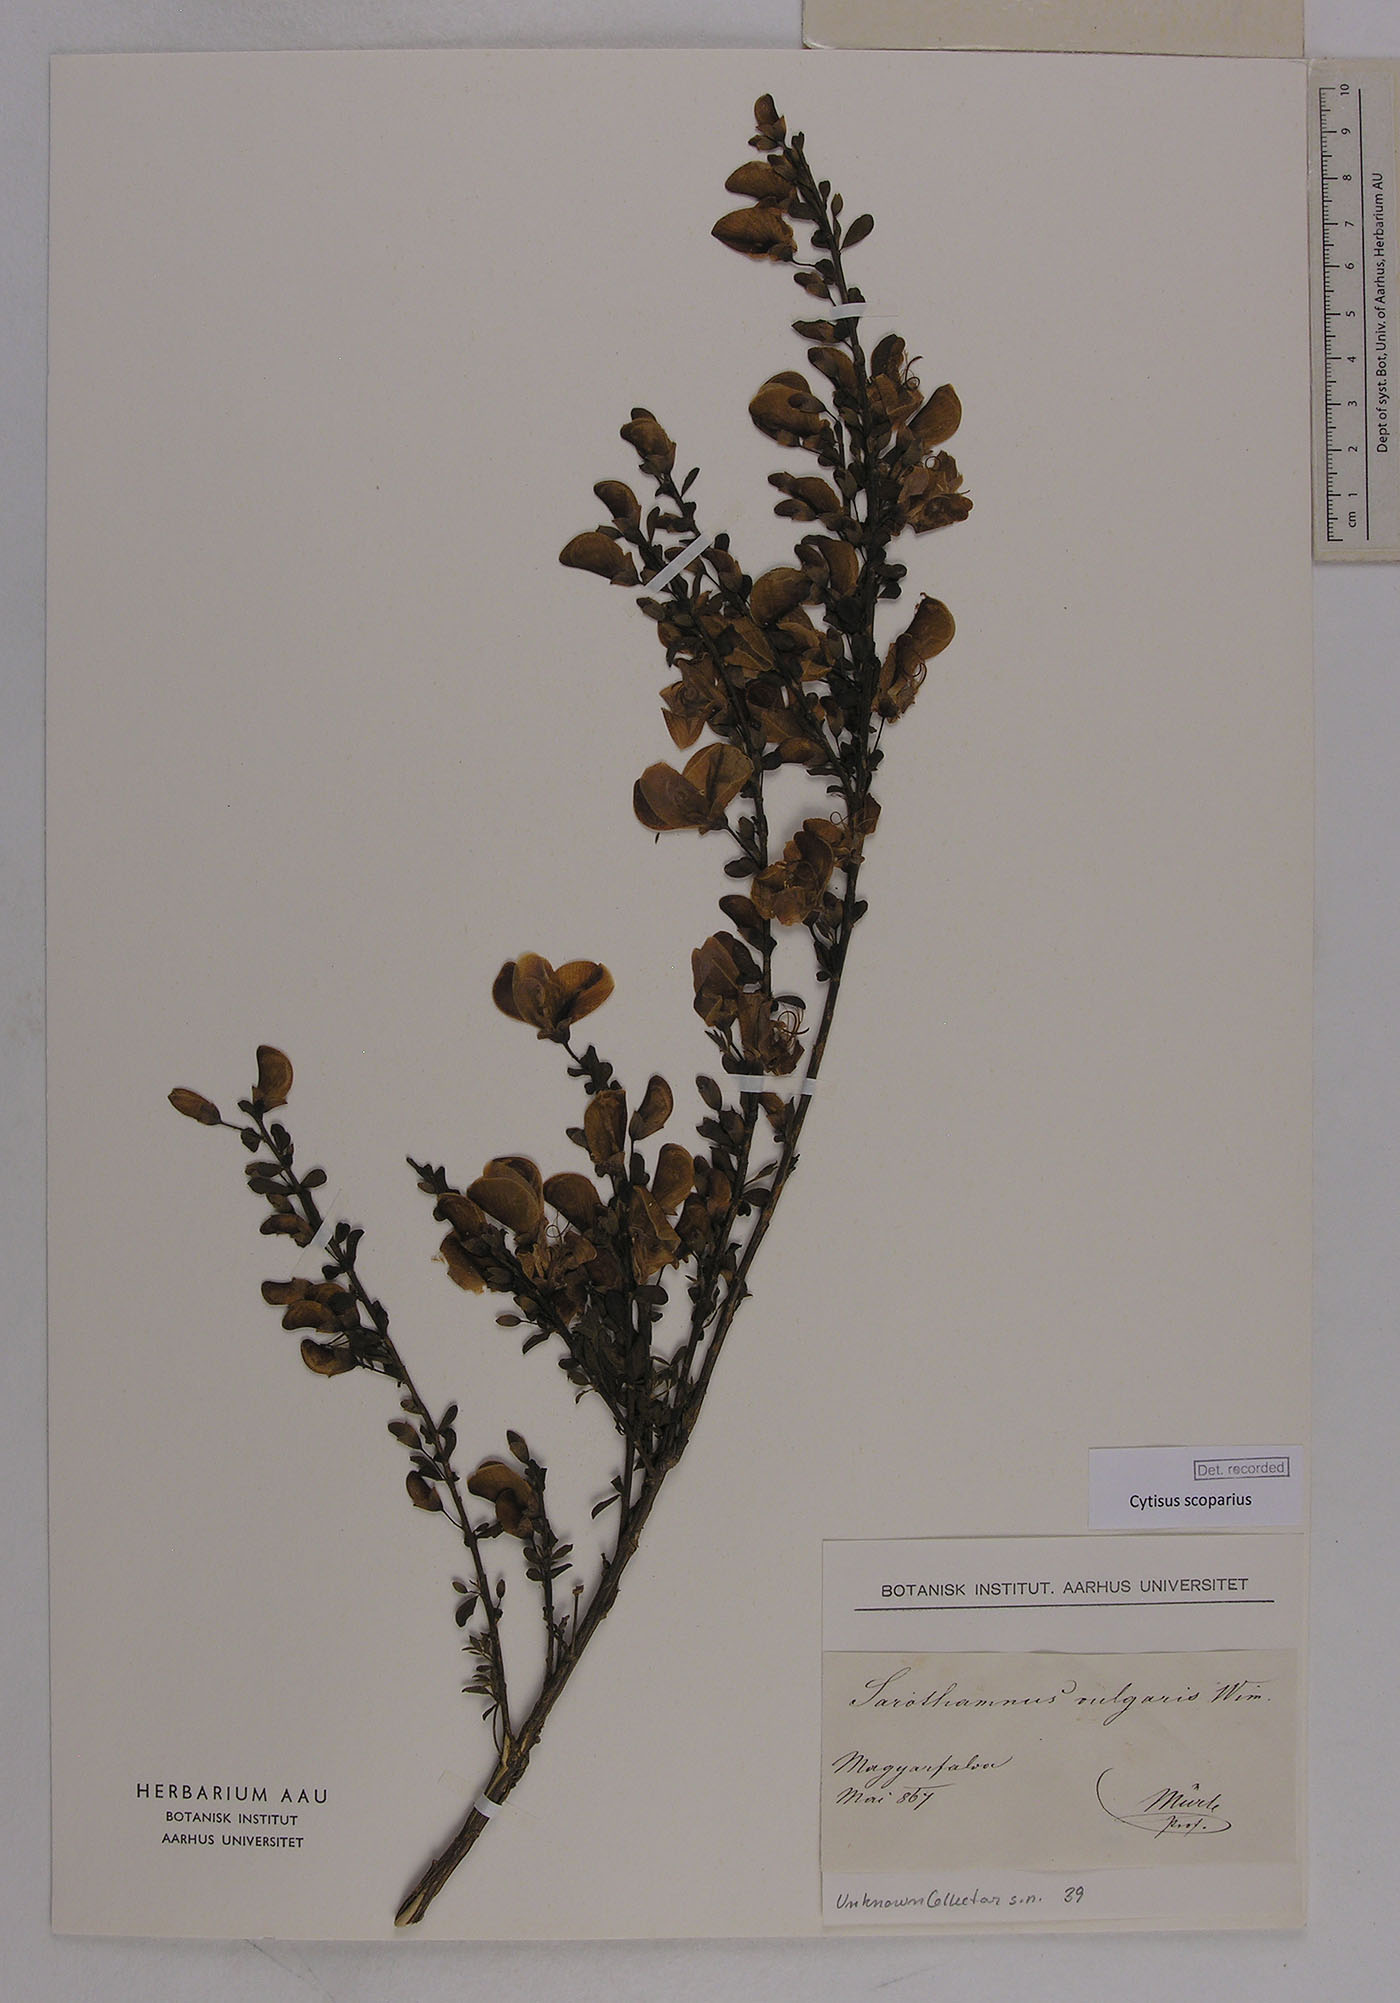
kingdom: Plantae
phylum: Tracheophyta
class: Magnoliopsida
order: Fabales
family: Fabaceae
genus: Cytisus
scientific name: Cytisus scoparius
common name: Scotch broom
